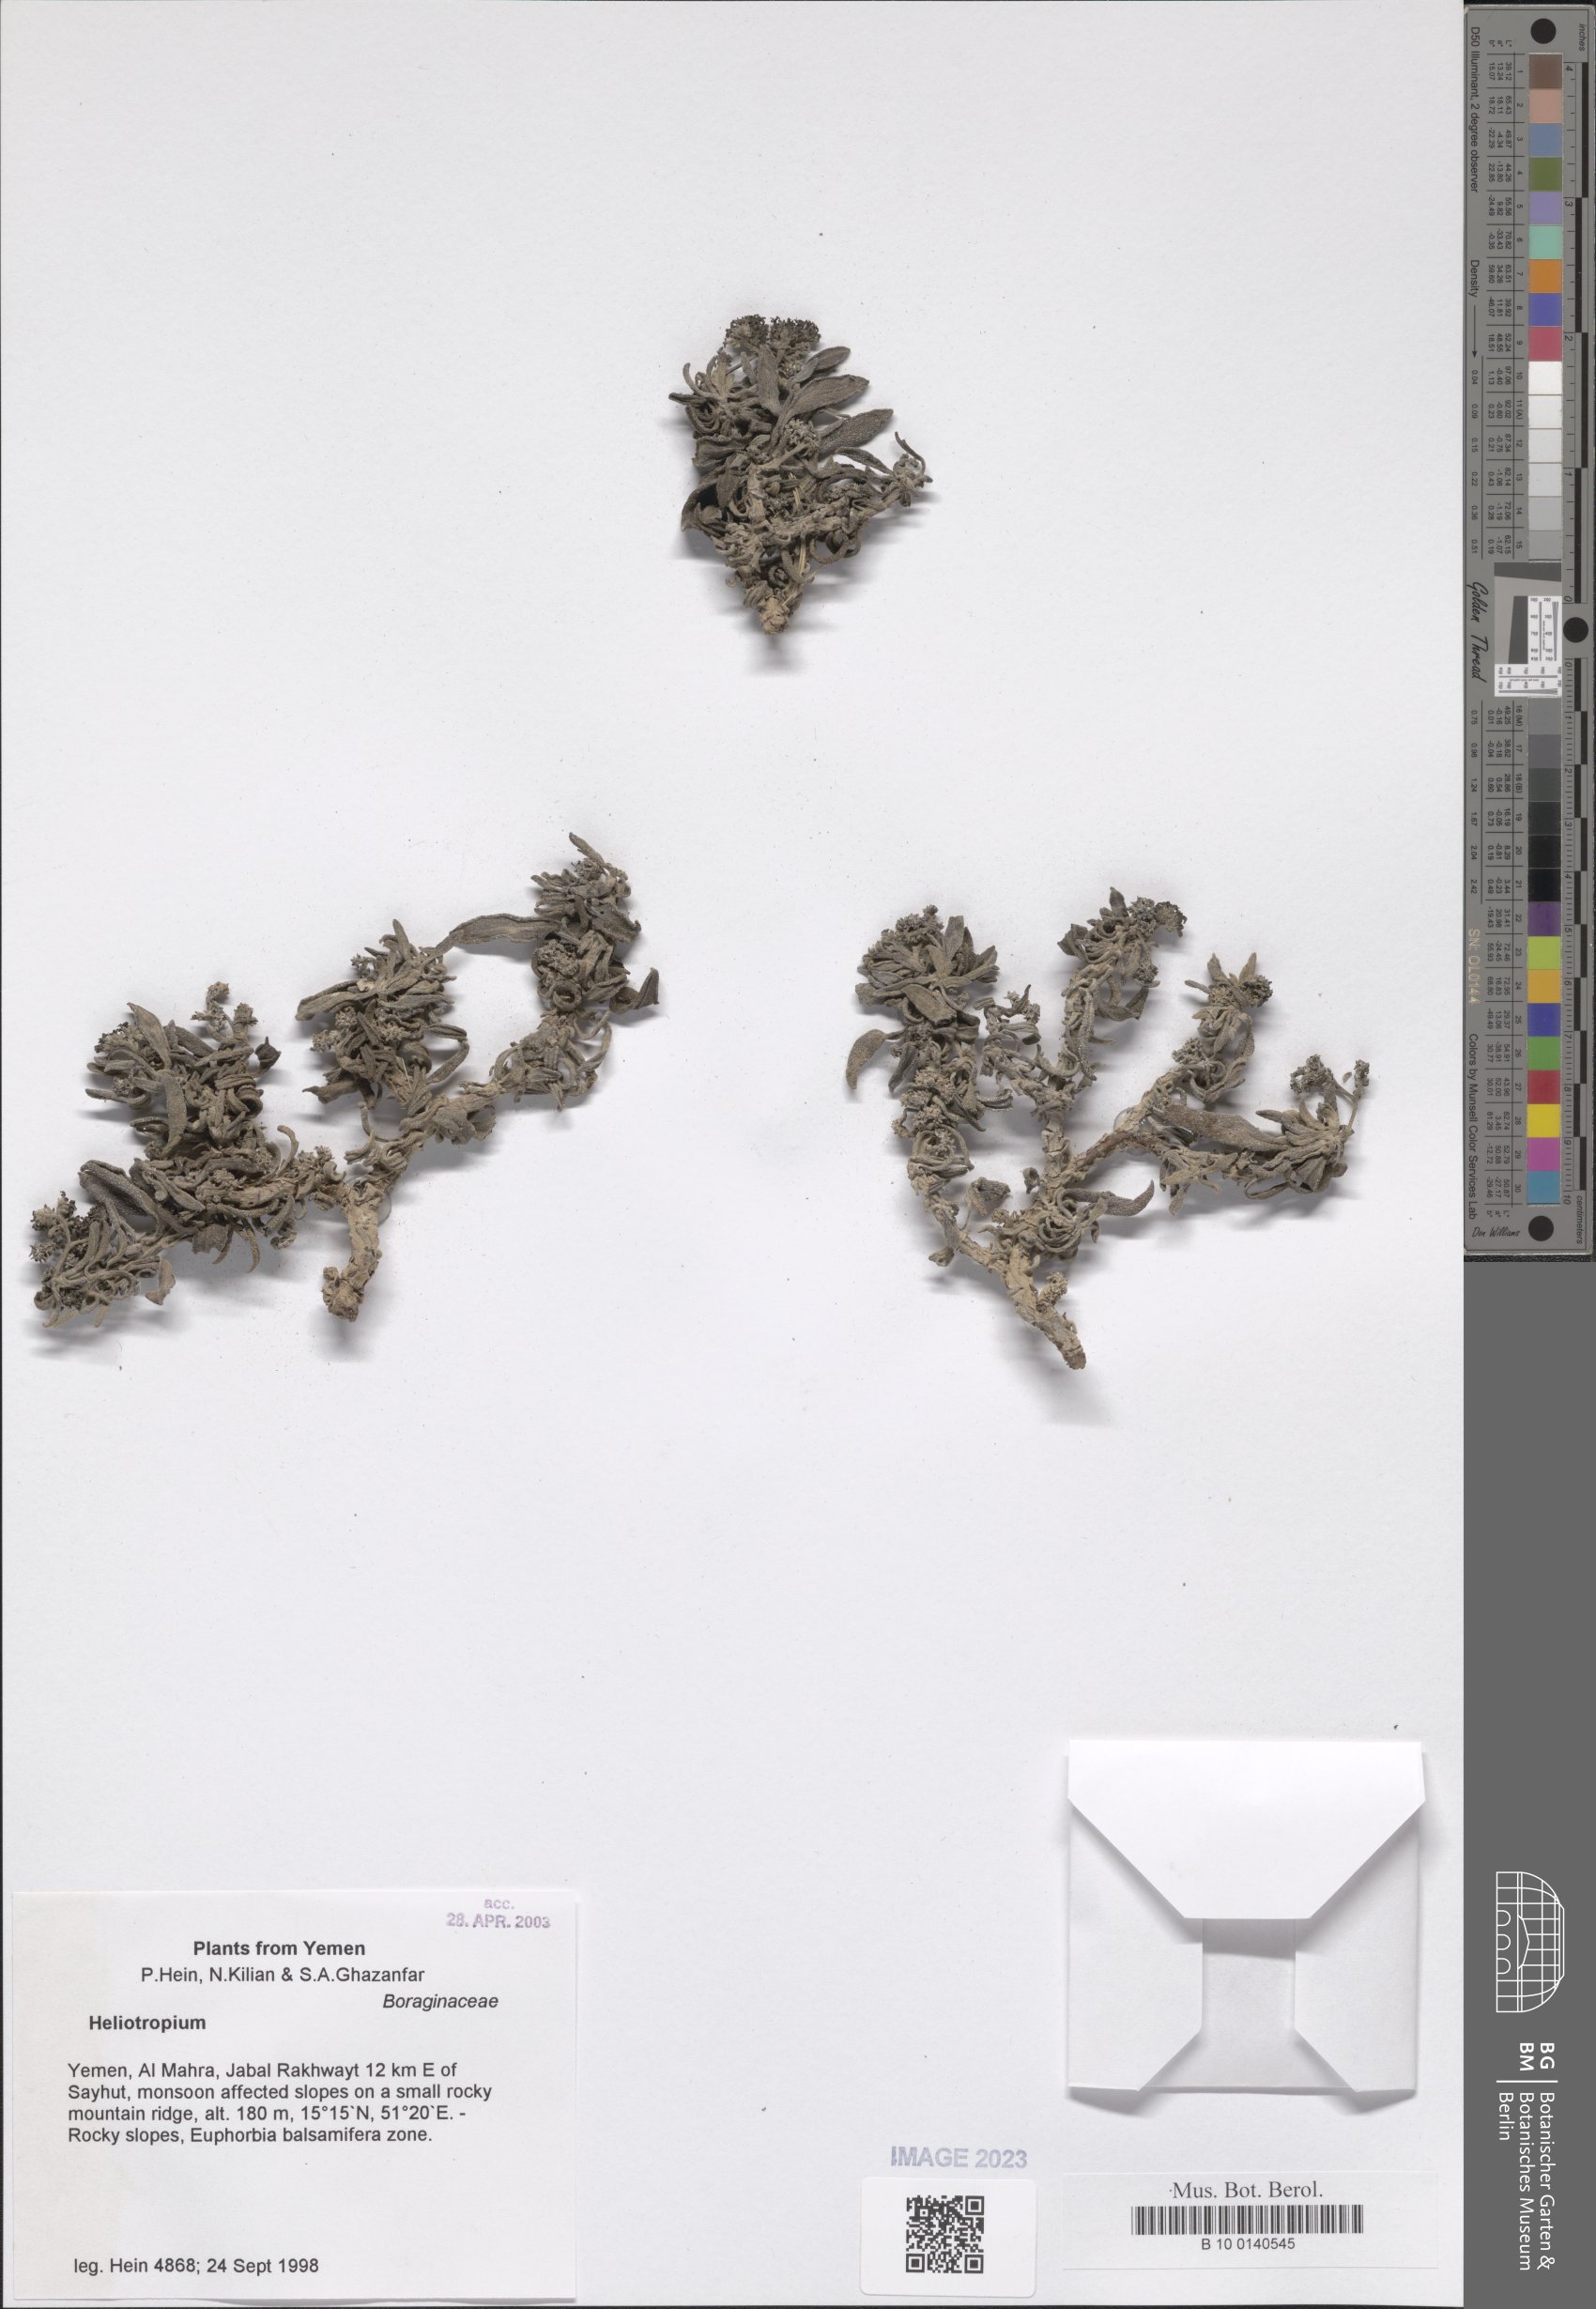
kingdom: Plantae
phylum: Tracheophyta
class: Magnoliopsida
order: Boraginales
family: Heliotropiaceae
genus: Heliotropium
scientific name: Heliotropium
